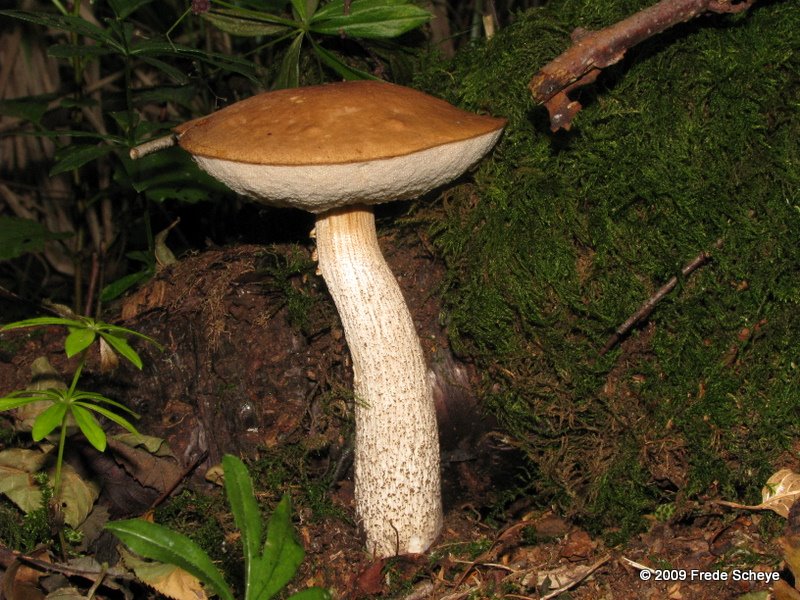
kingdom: Fungi
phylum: Basidiomycota
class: Agaricomycetes
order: Boletales
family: Boletaceae
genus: Leccinum
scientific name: Leccinum scabrum
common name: brun skælrørhat
